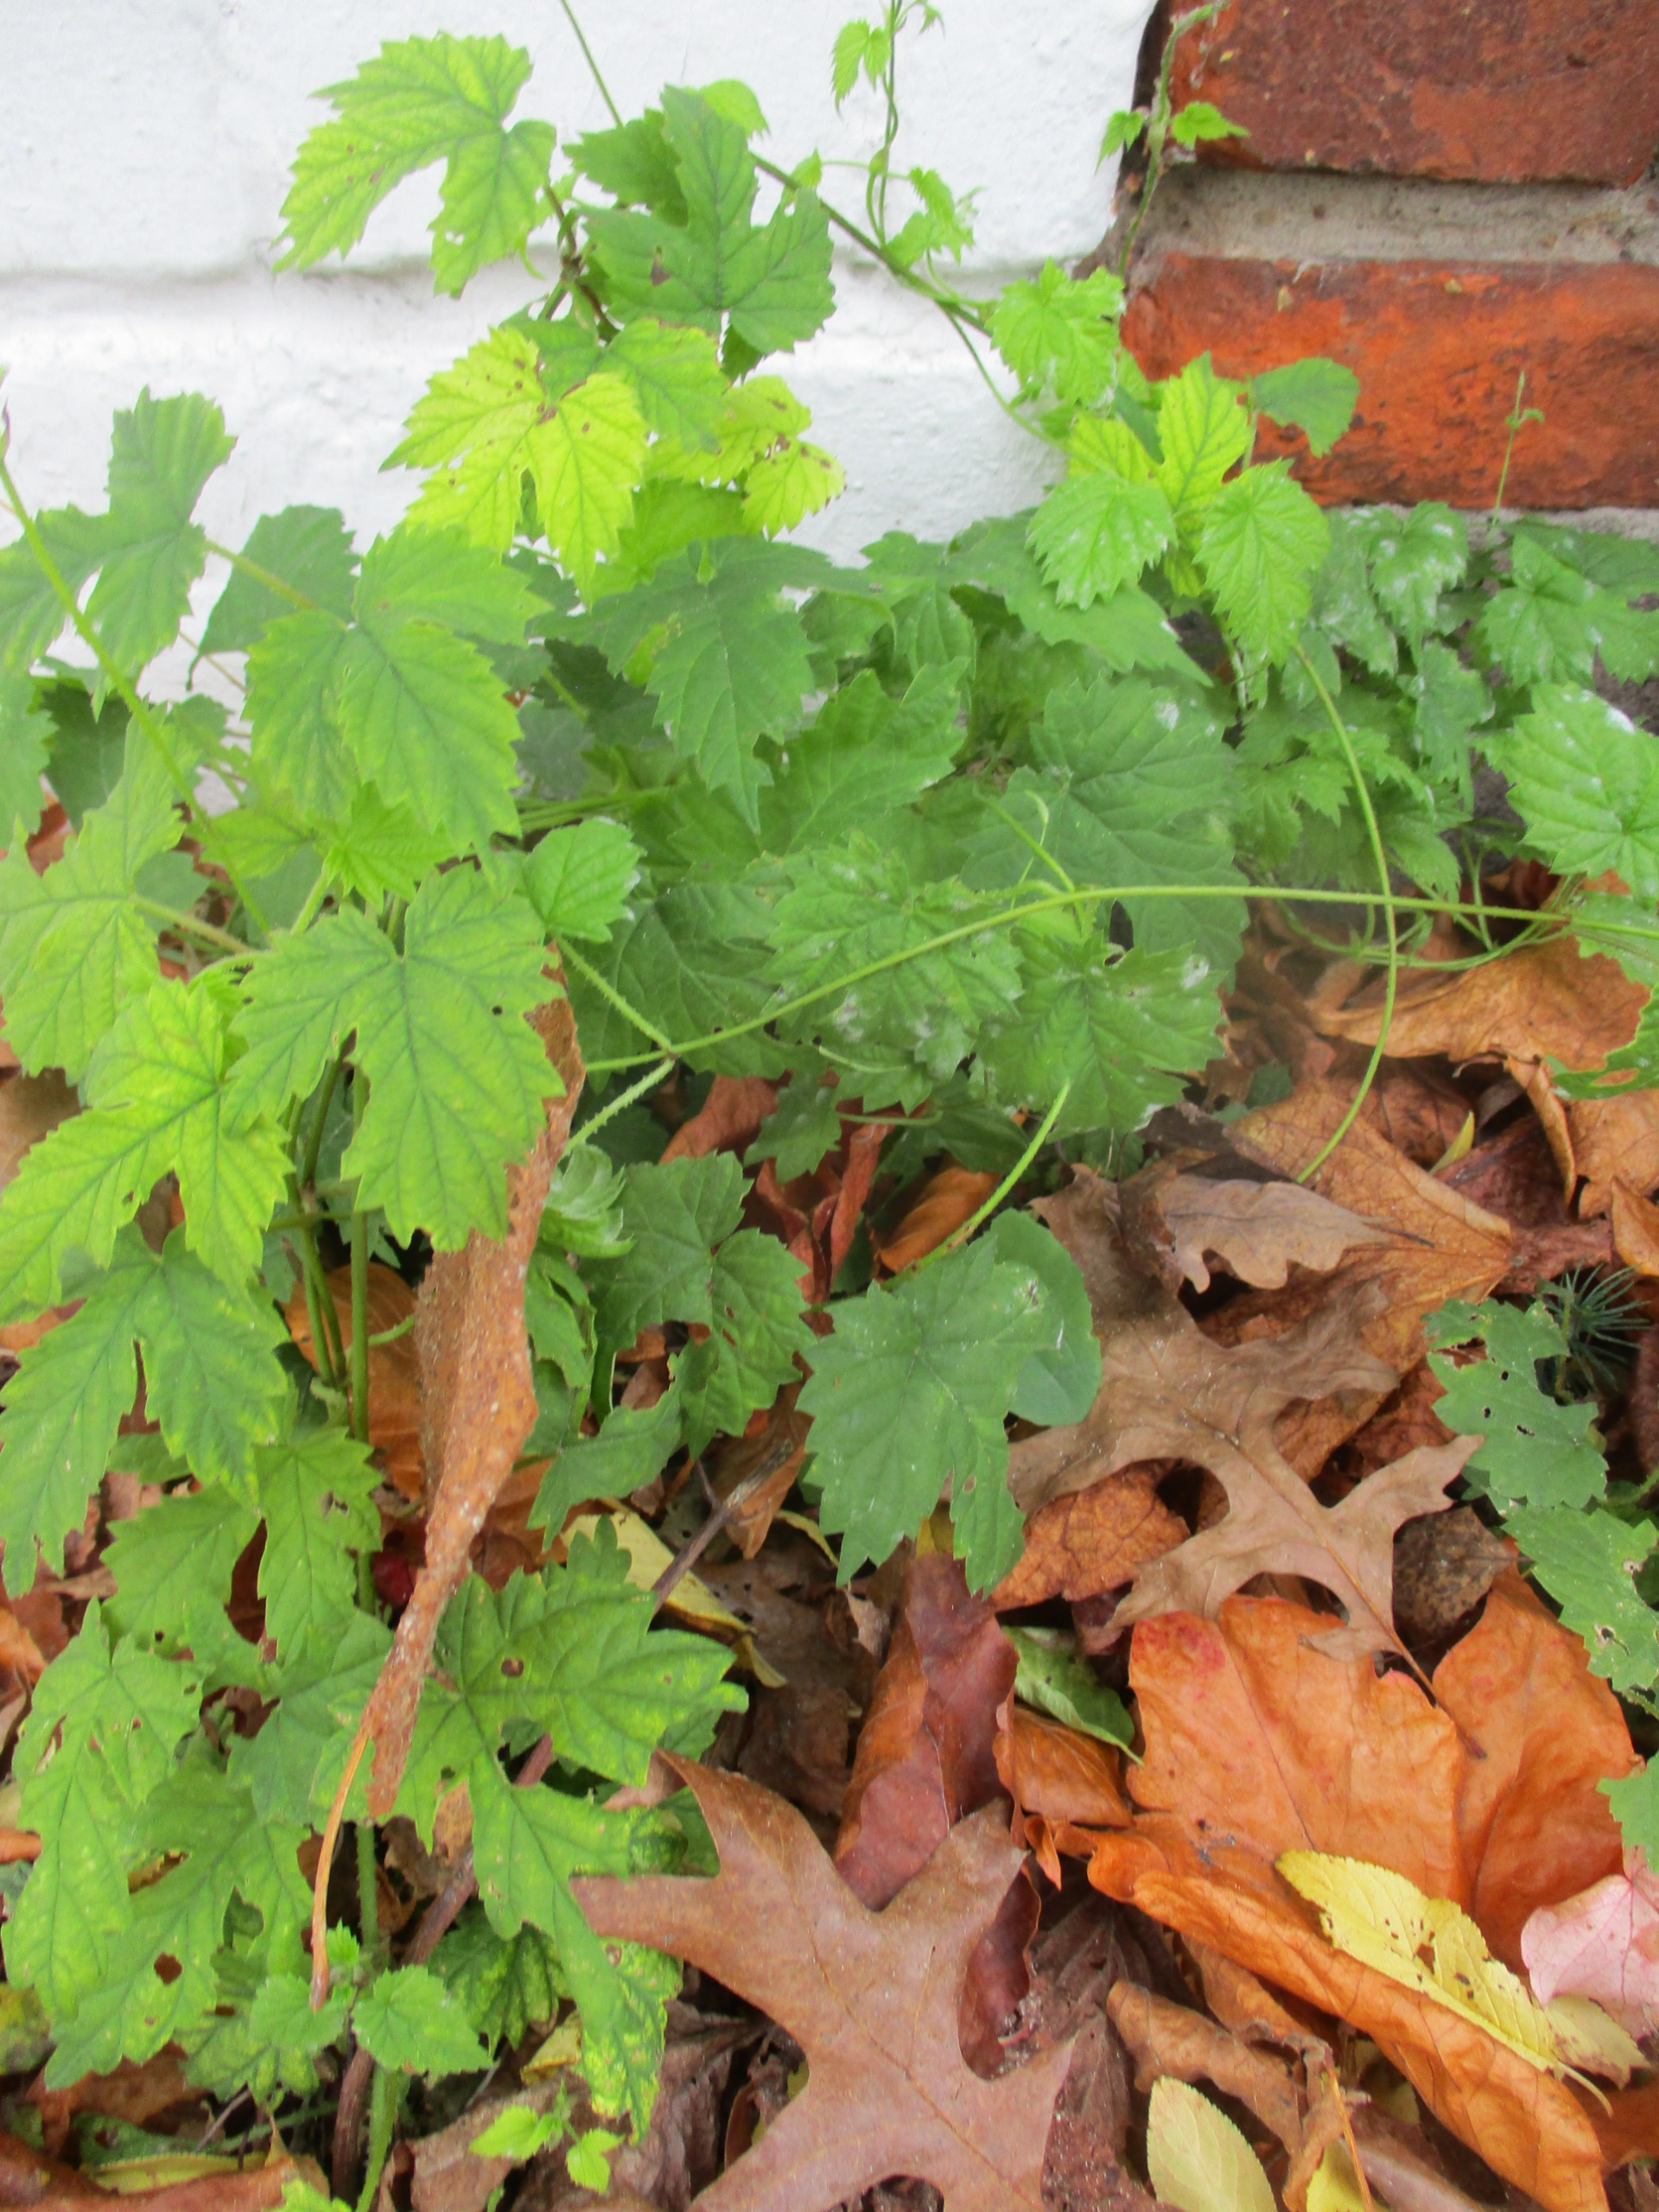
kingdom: Plantae
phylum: Tracheophyta
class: Magnoliopsida
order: Rosales
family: Cannabaceae
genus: Humulus
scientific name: Humulus lupulus
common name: Humle
